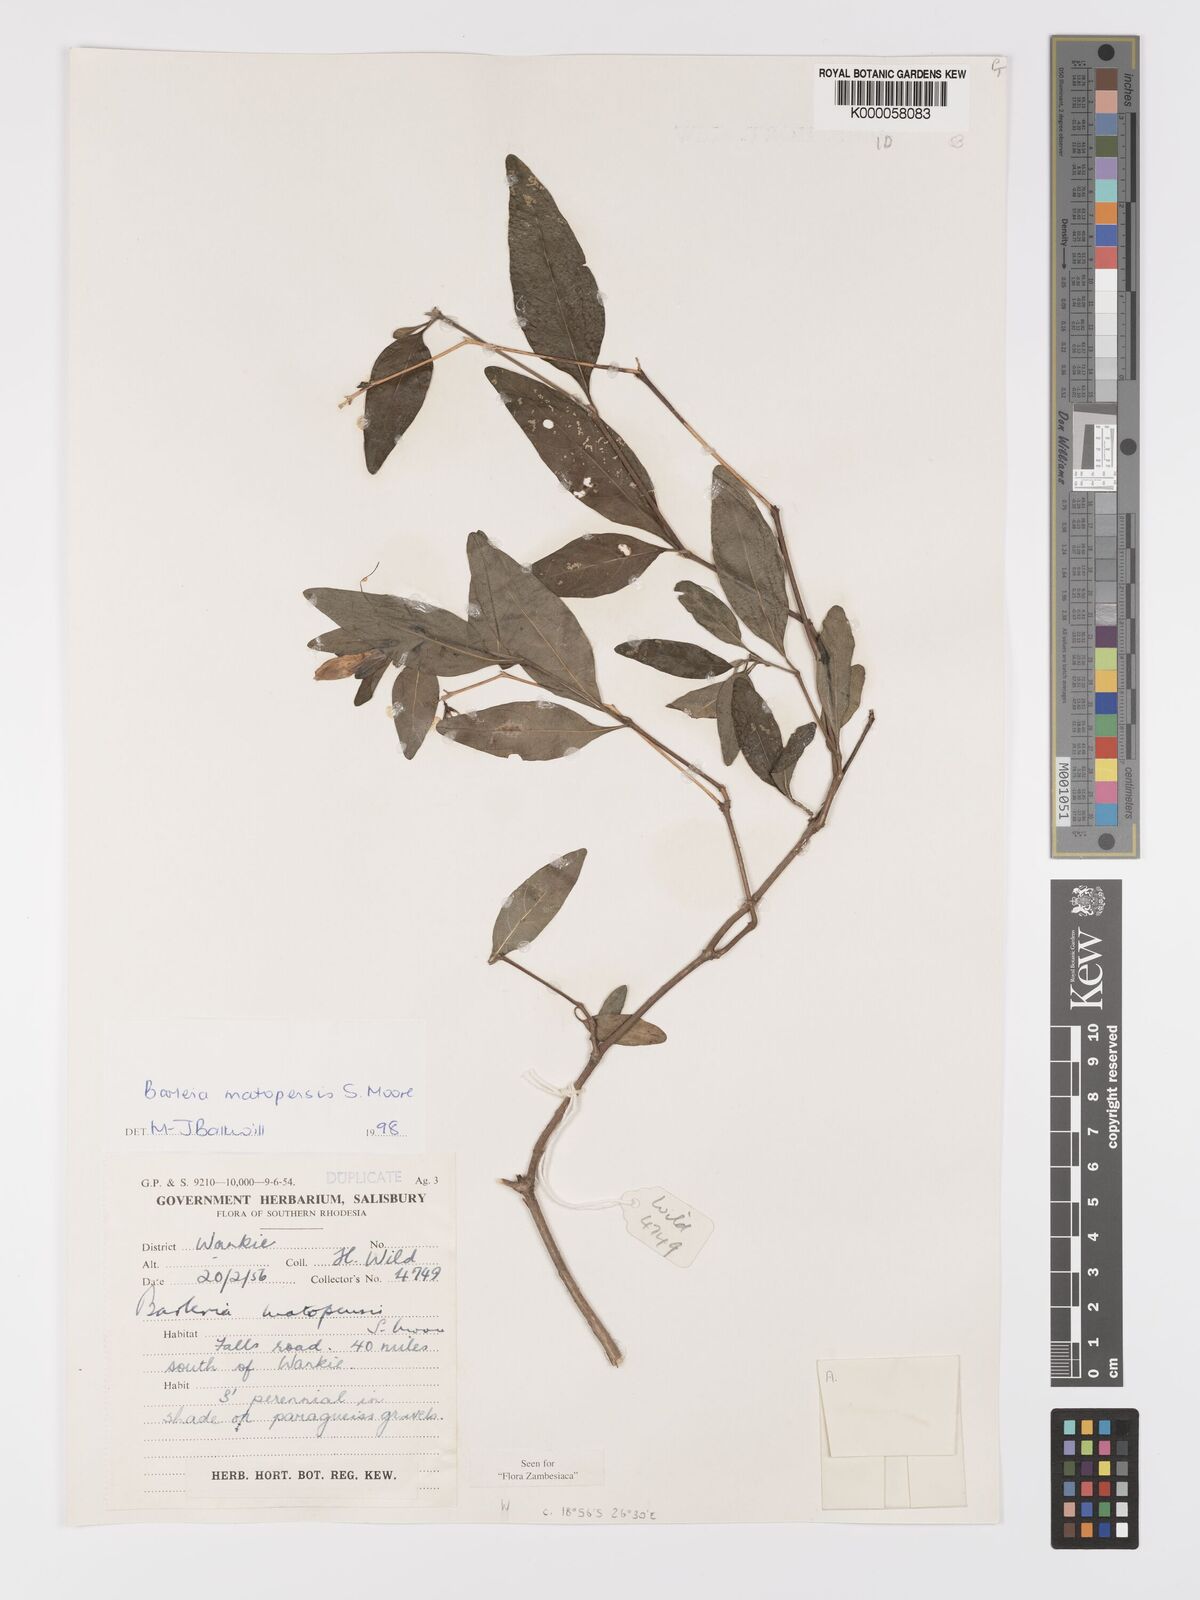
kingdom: Plantae
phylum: Tracheophyta
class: Magnoliopsida
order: Lamiales
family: Acanthaceae
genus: Barleria
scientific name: Barleria matopensis
